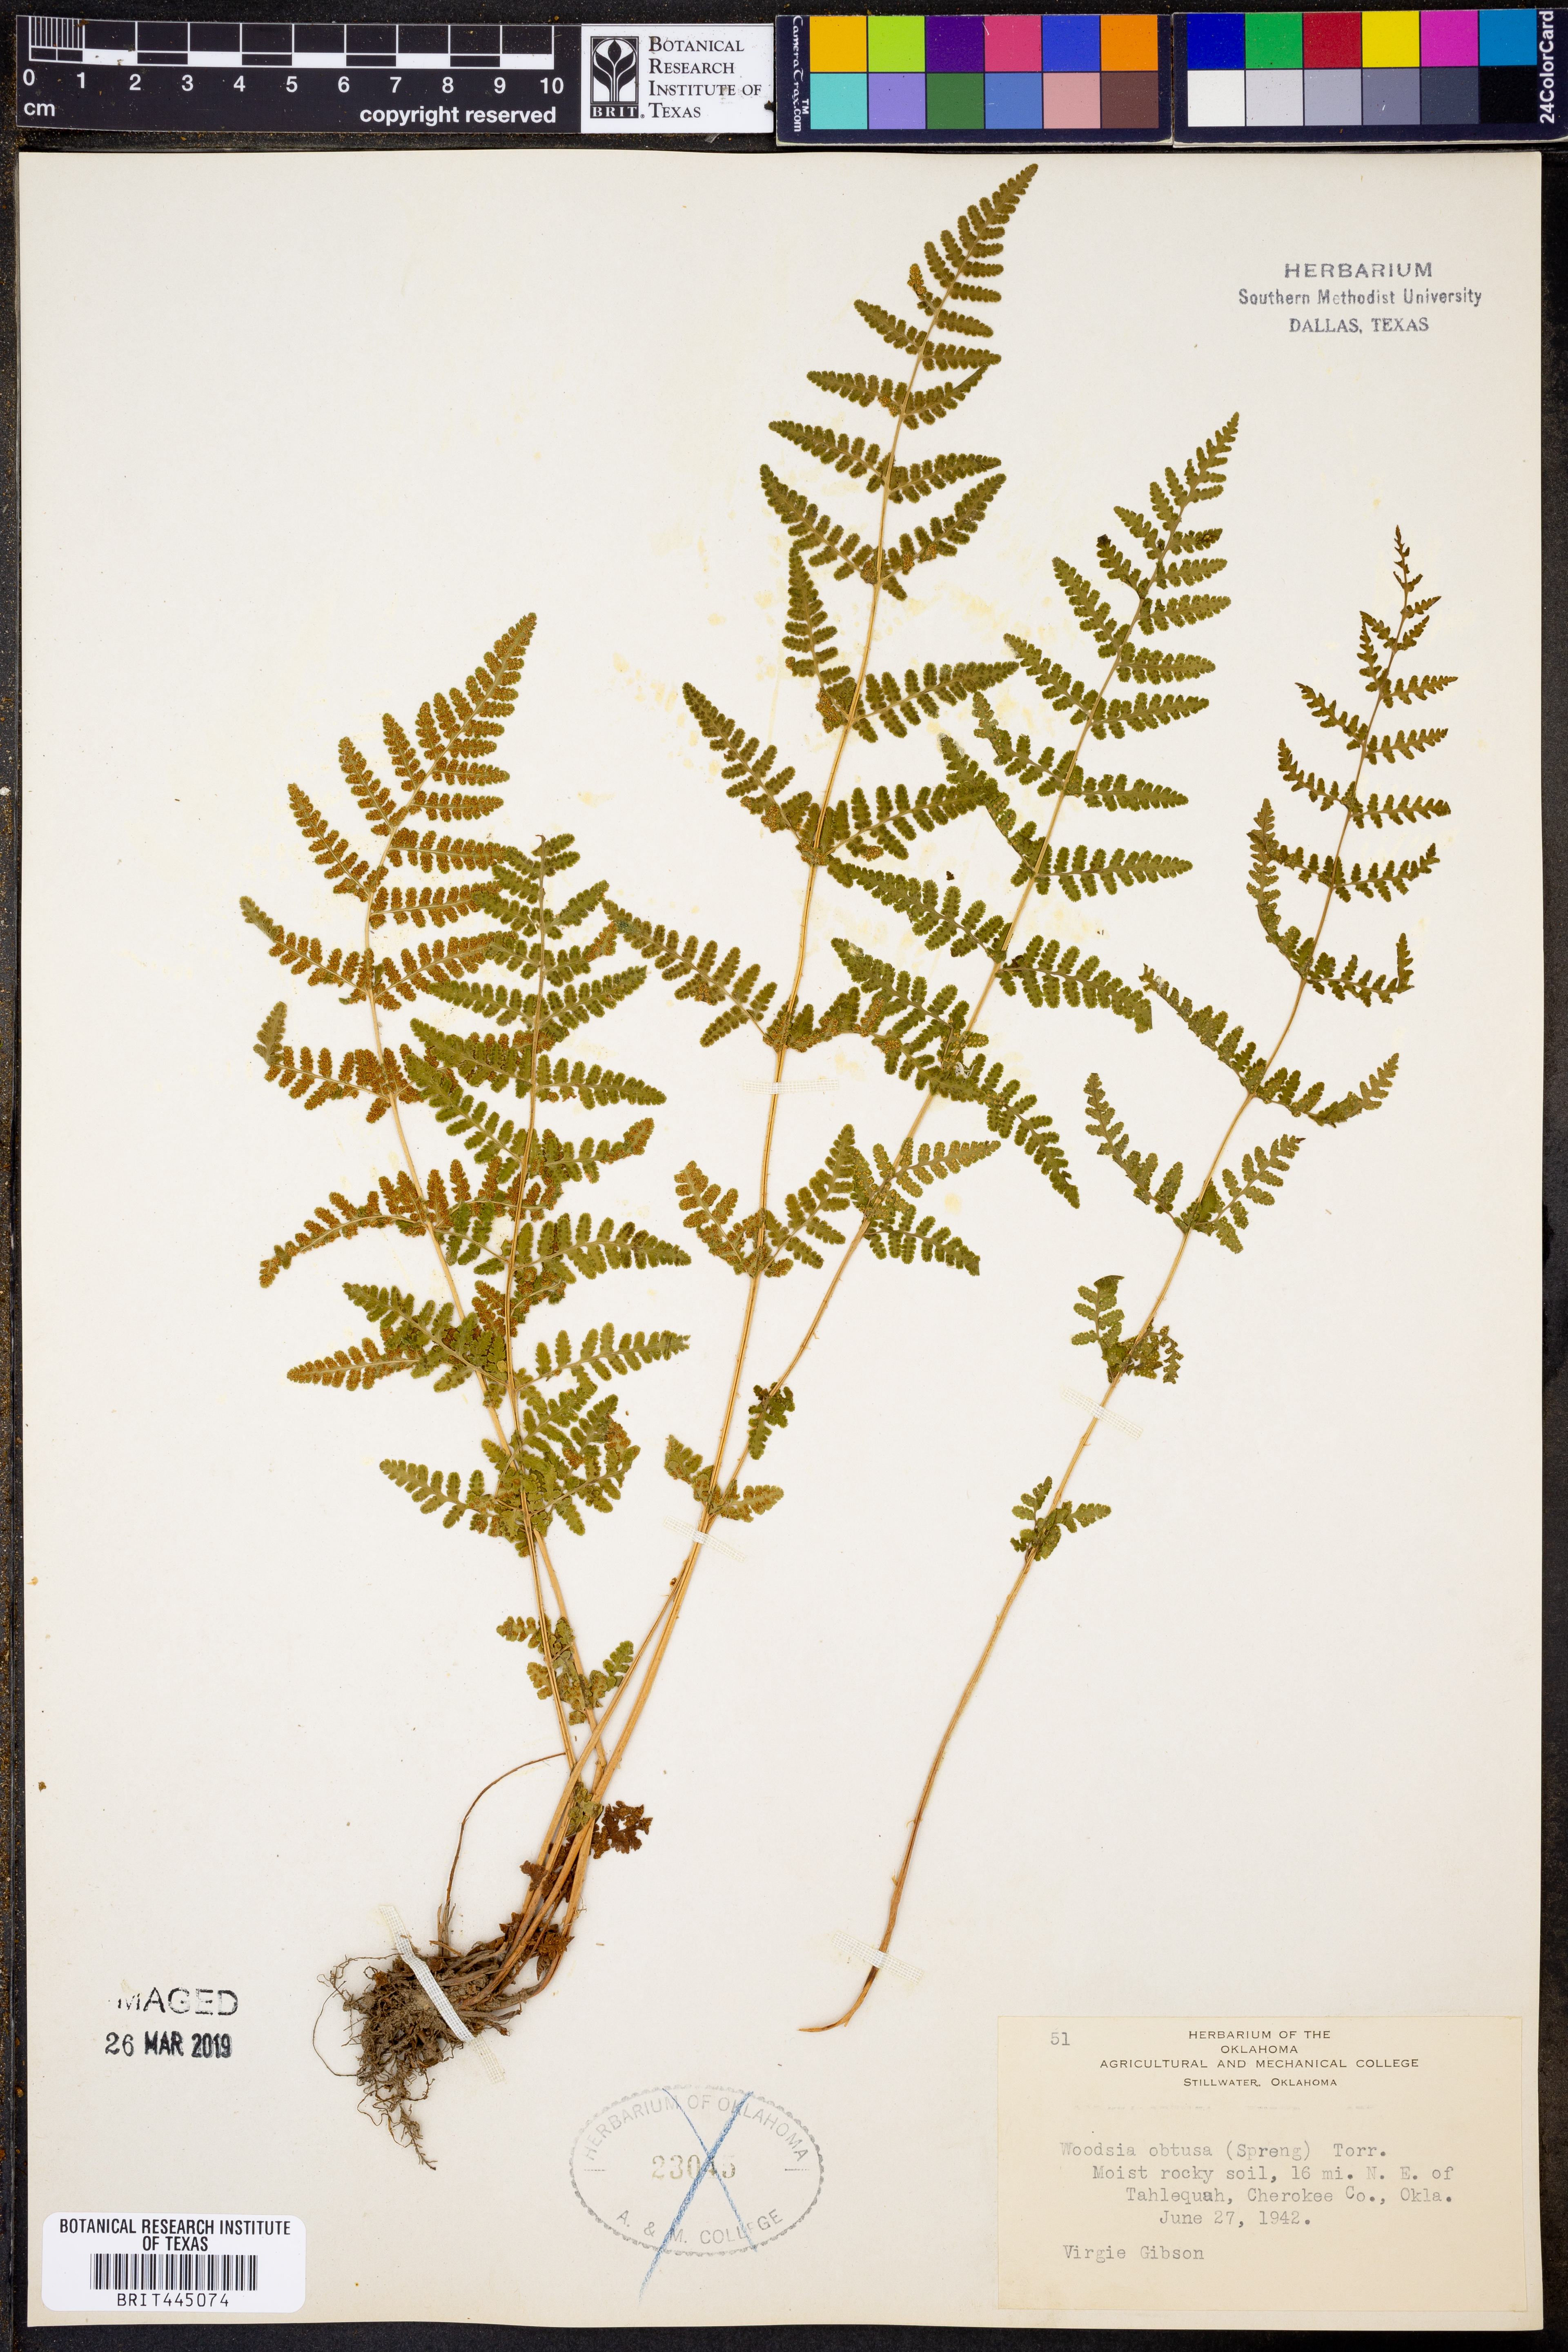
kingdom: Plantae
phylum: Tracheophyta
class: Polypodiopsida
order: Polypodiales
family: Woodsiaceae
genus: Physematium
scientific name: Physematium obtusum
